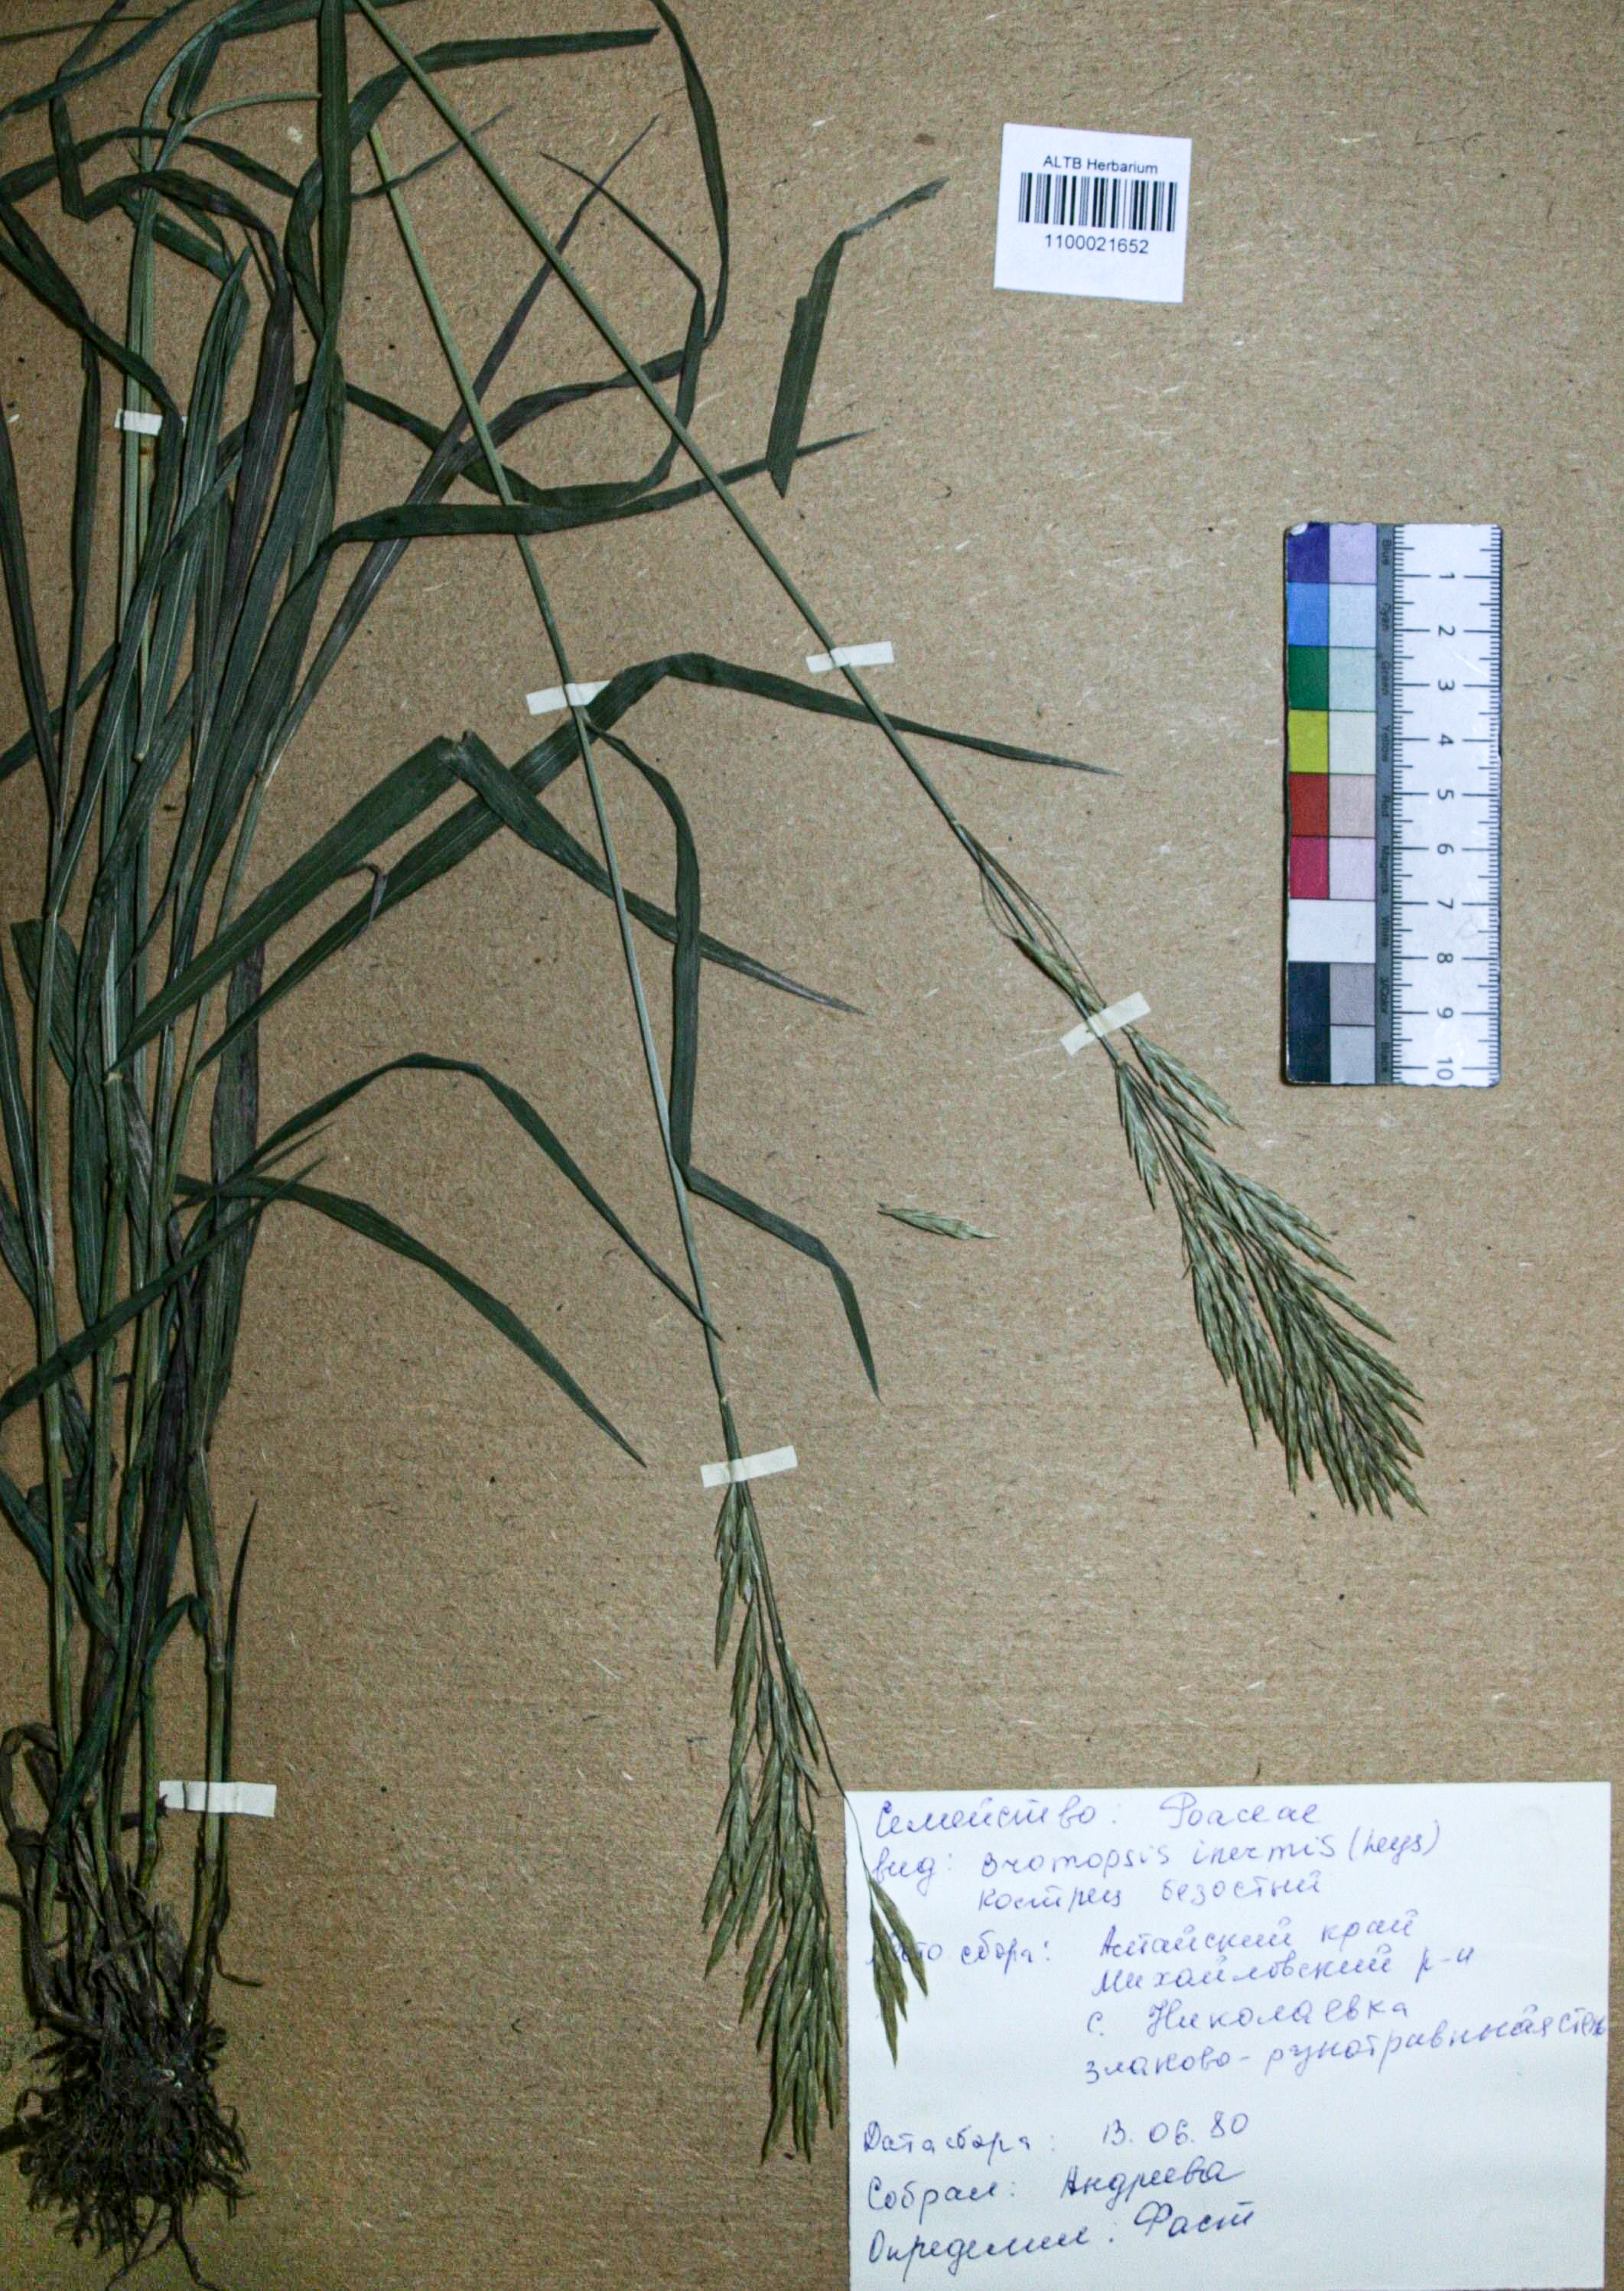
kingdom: Plantae
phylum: Tracheophyta
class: Liliopsida
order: Poales
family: Poaceae
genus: Bromus
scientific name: Bromus inermis
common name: Smooth brome
